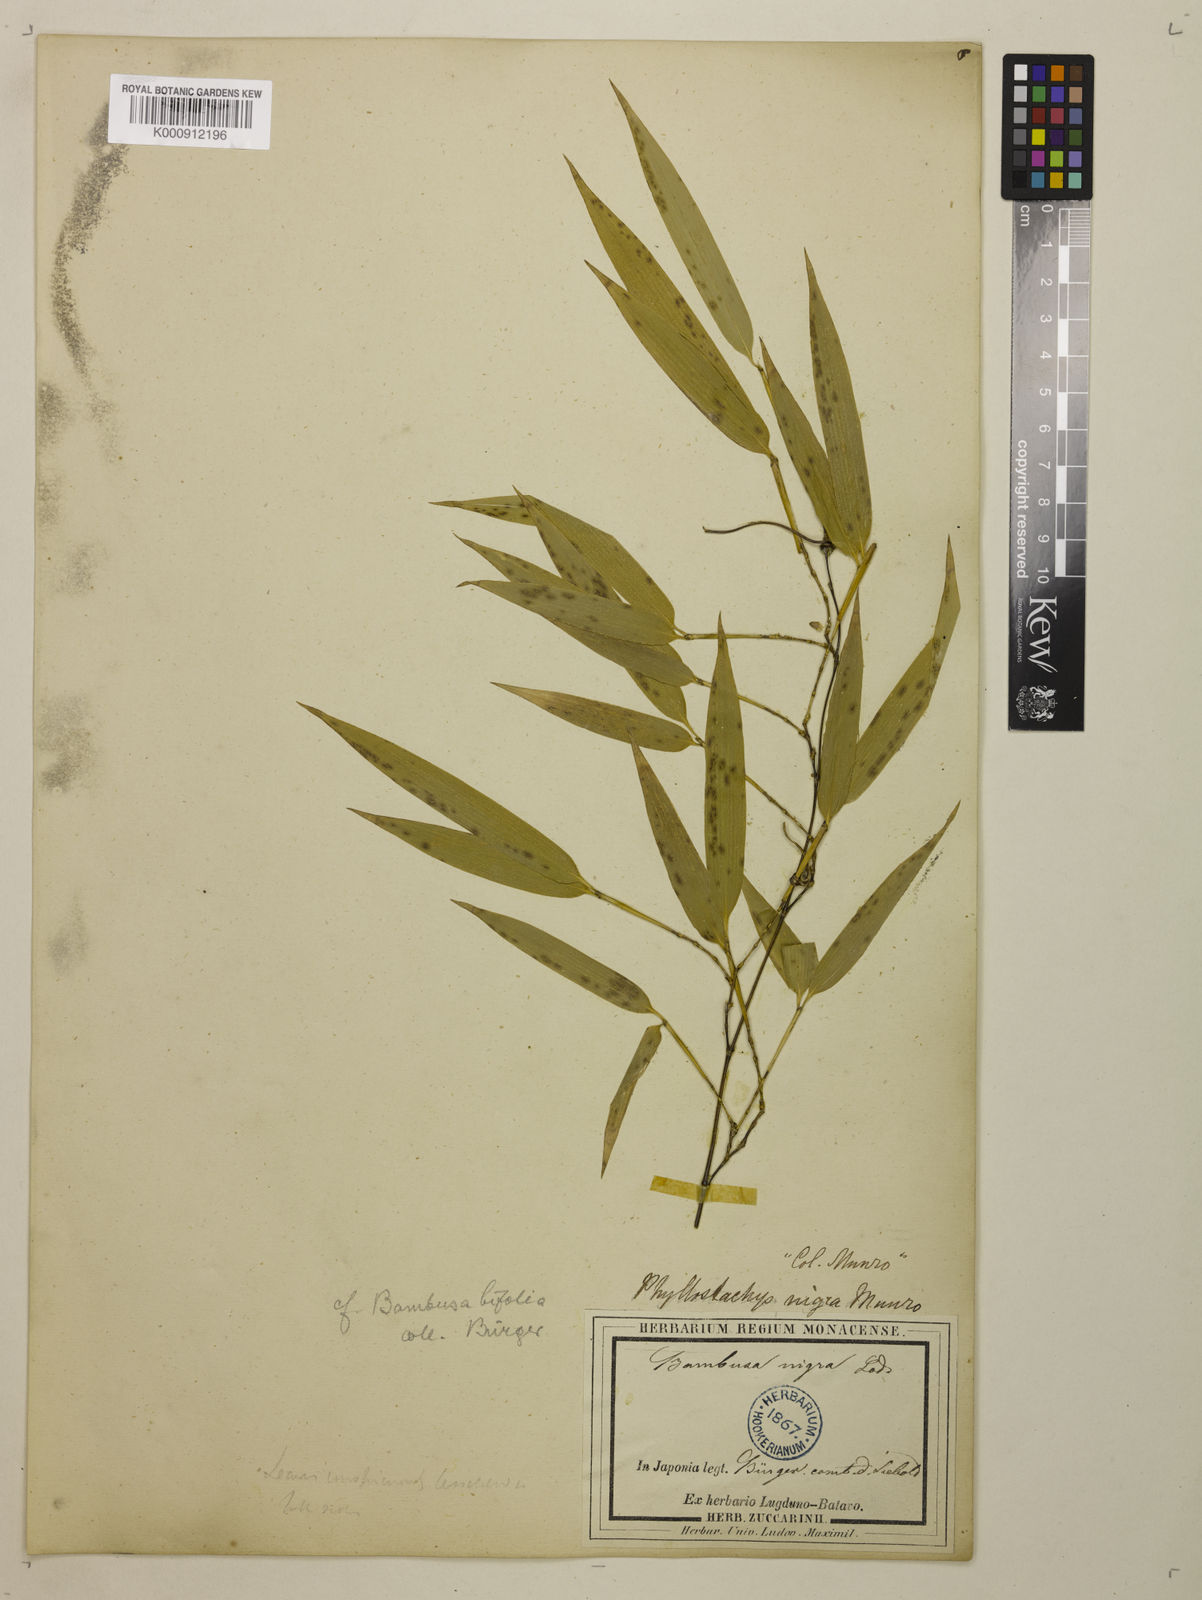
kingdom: Plantae
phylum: Tracheophyta
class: Liliopsida
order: Poales
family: Poaceae
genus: Phyllostachys
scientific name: Phyllostachys nigra
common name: Black bamboo
